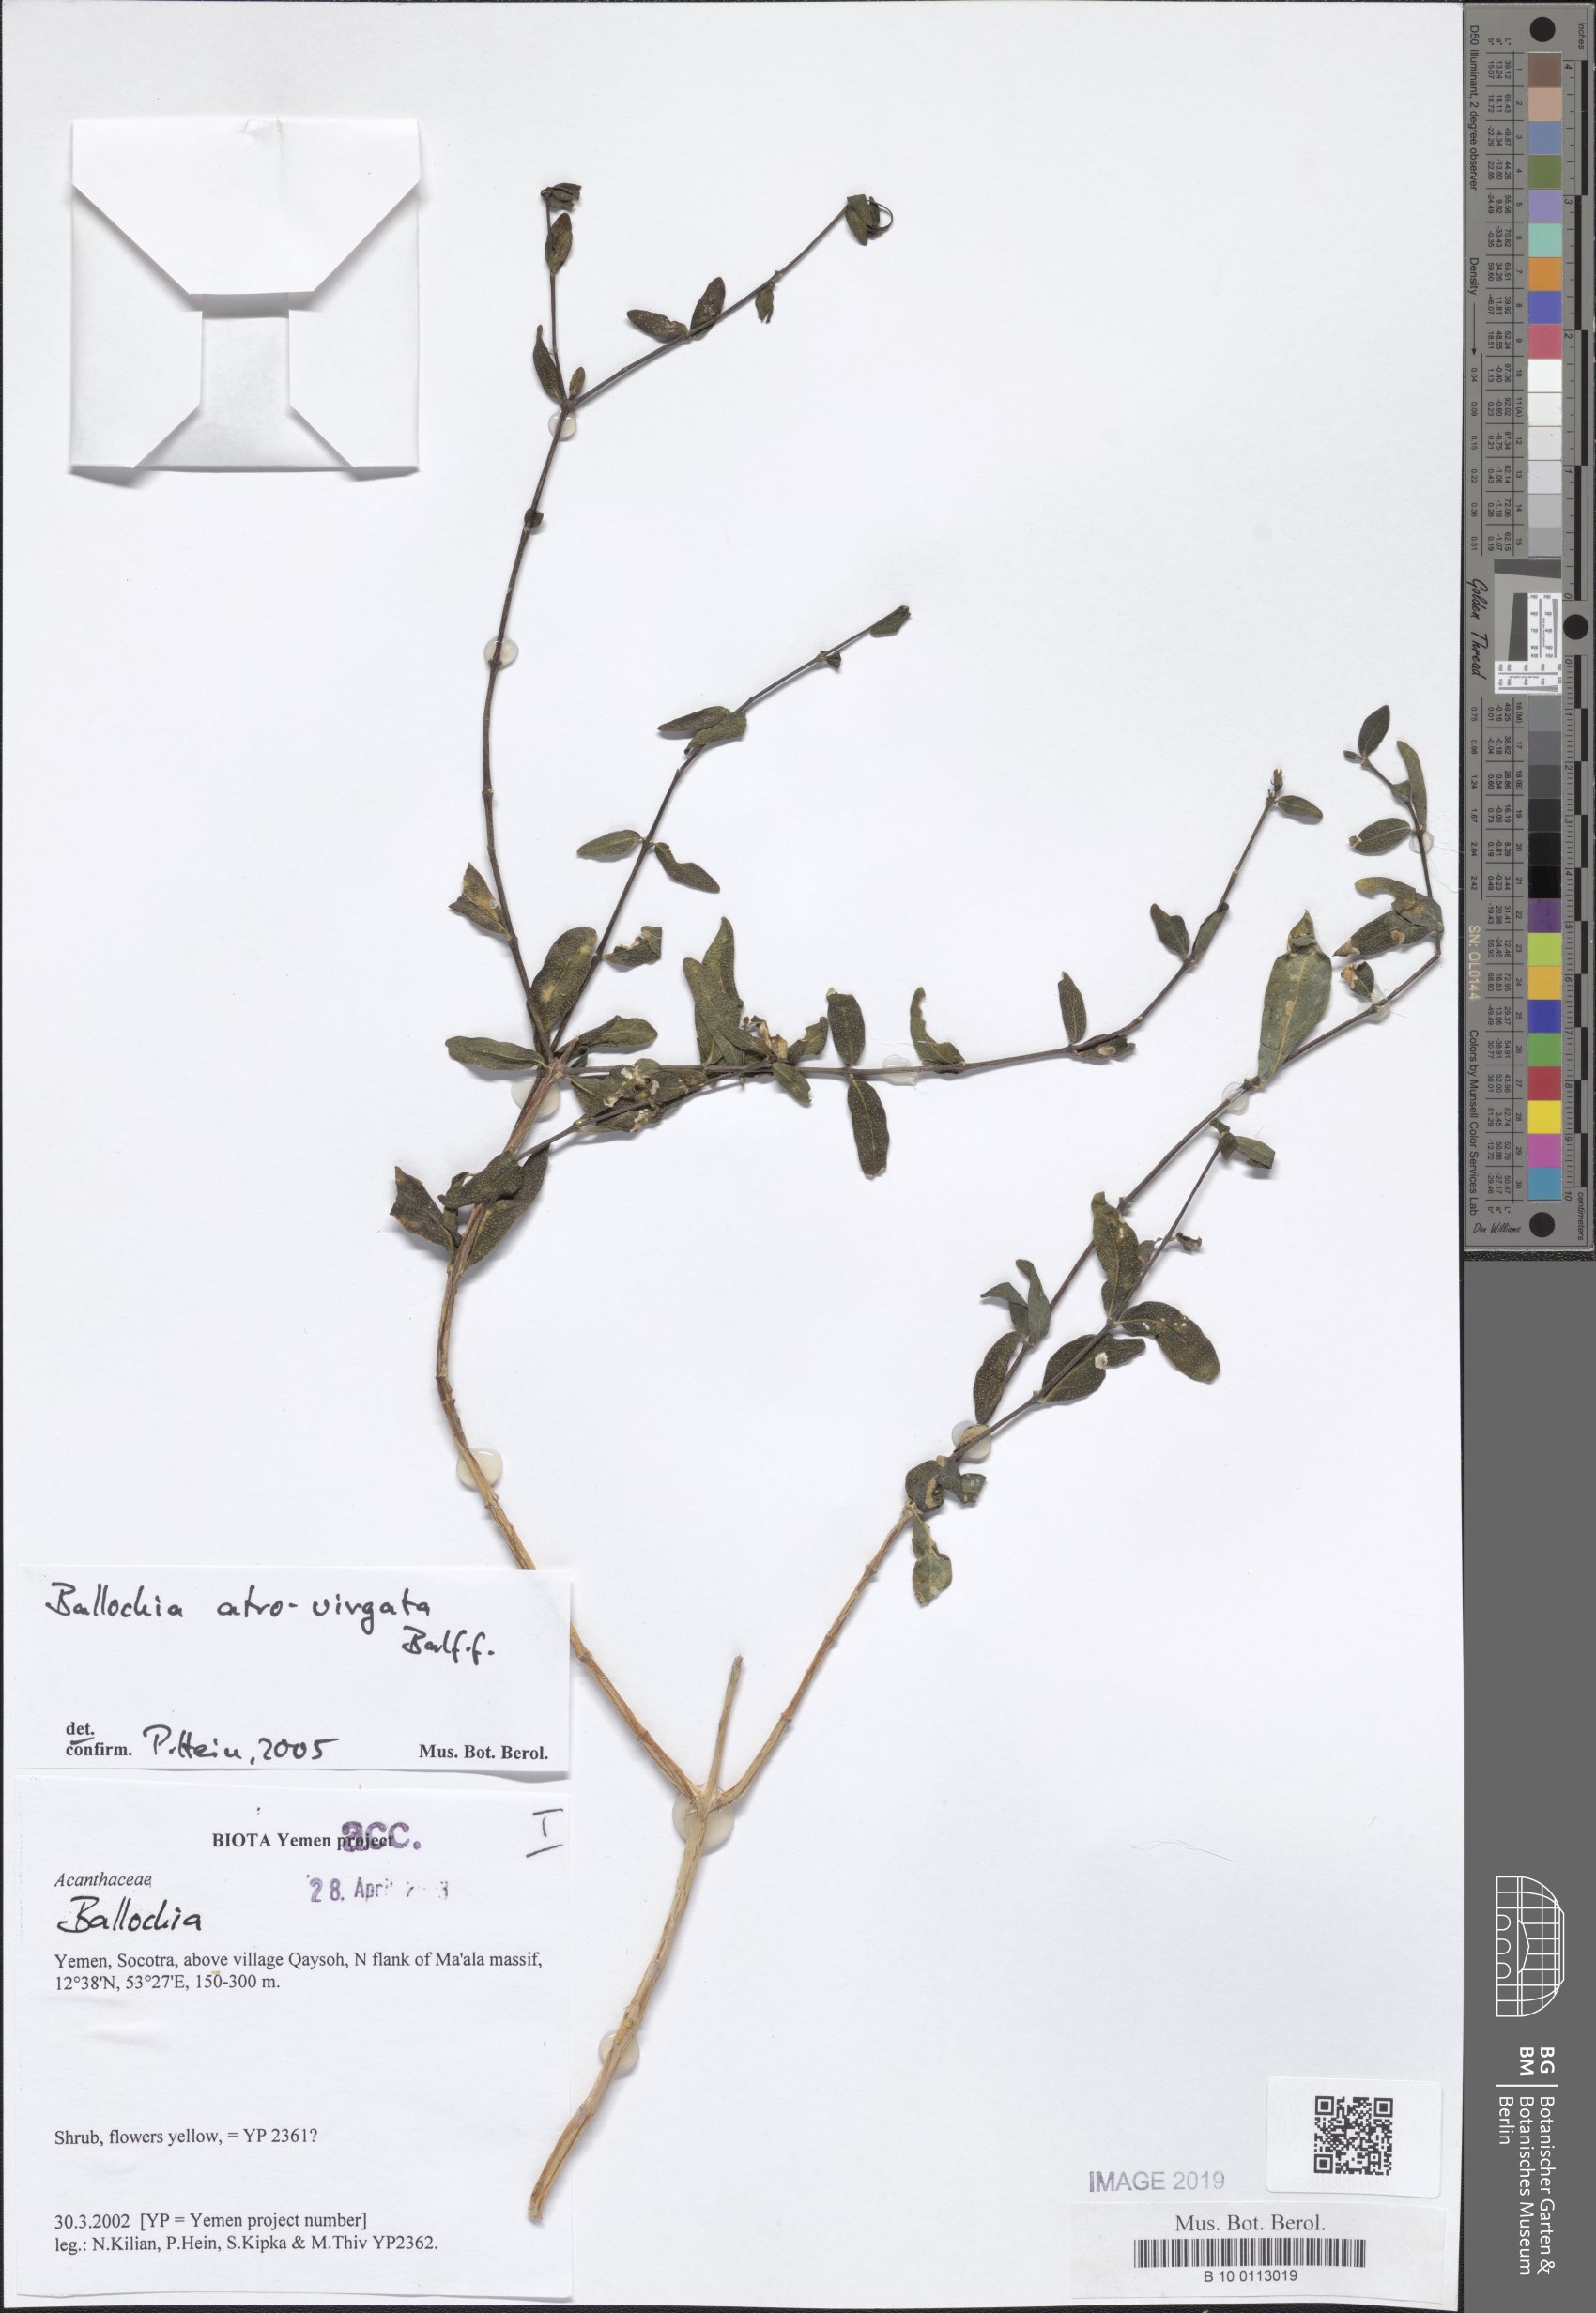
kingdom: Plantae
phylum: Tracheophyta
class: Magnoliopsida
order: Lamiales
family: Acanthaceae
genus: Ballochia
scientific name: Ballochia atrovirgata
